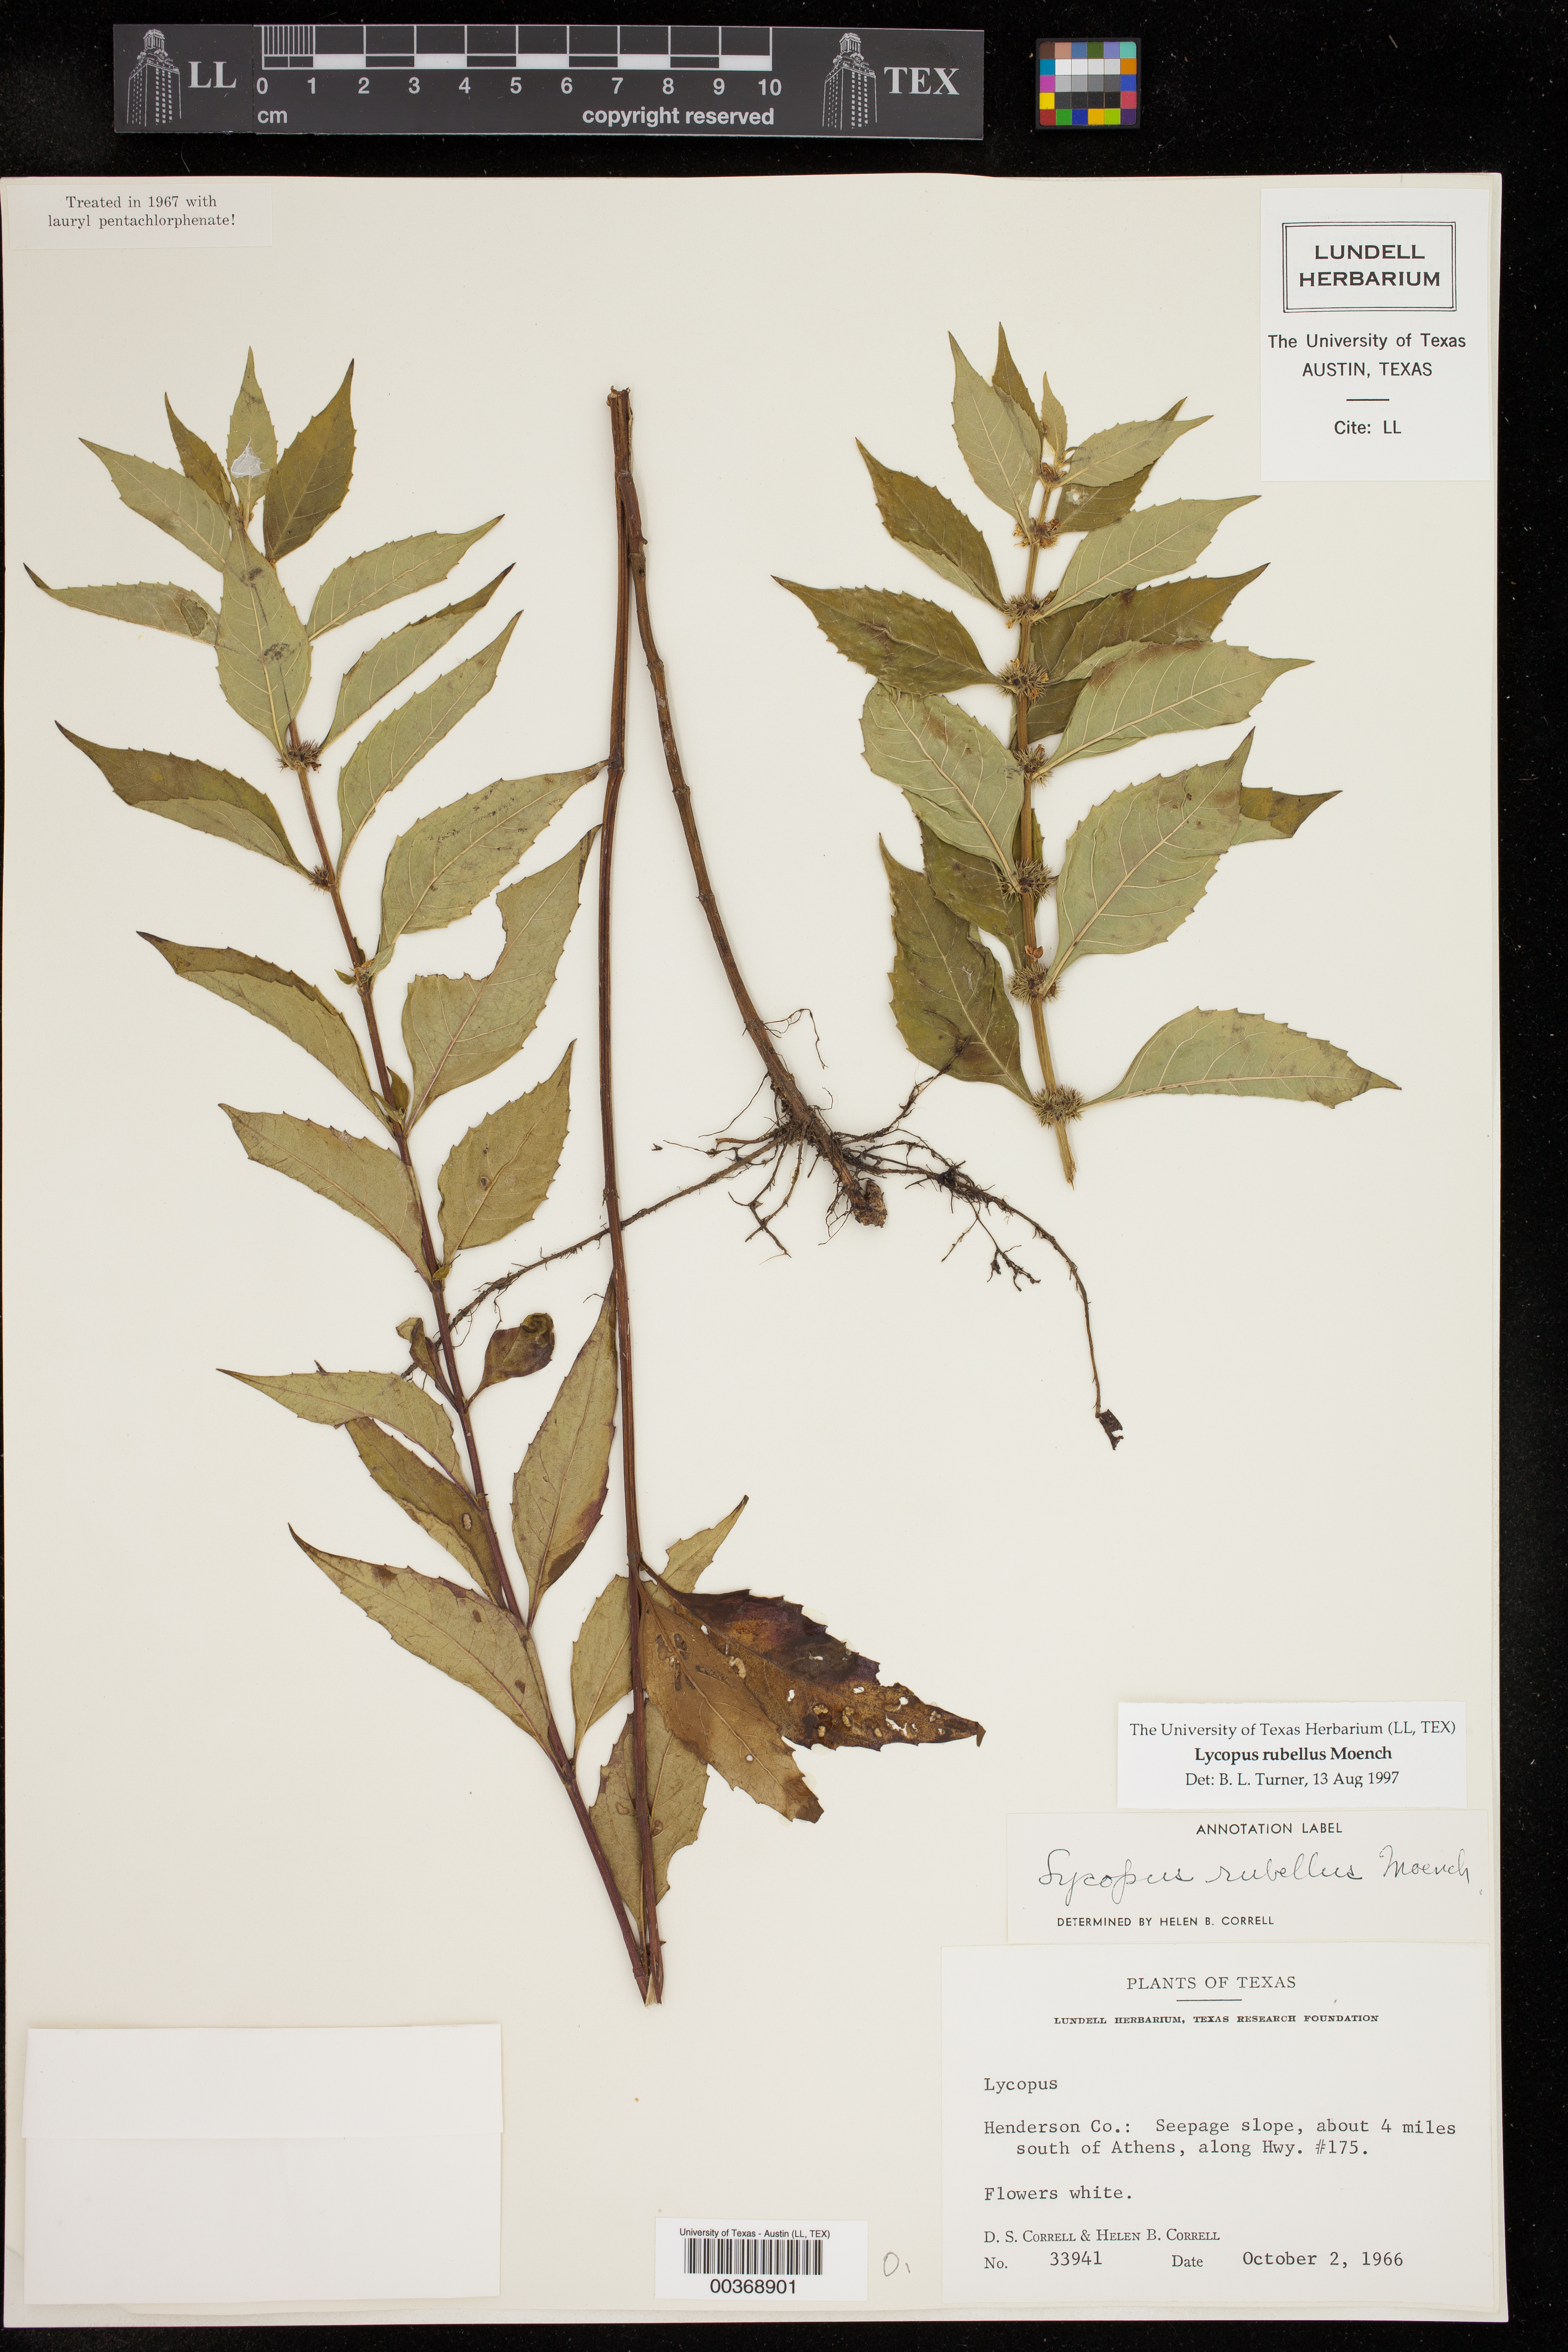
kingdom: Plantae
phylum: Tracheophyta
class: Magnoliopsida
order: Lamiales
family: Lamiaceae
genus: Lycopus
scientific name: Lycopus rubellus
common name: Stalked bugleweed
